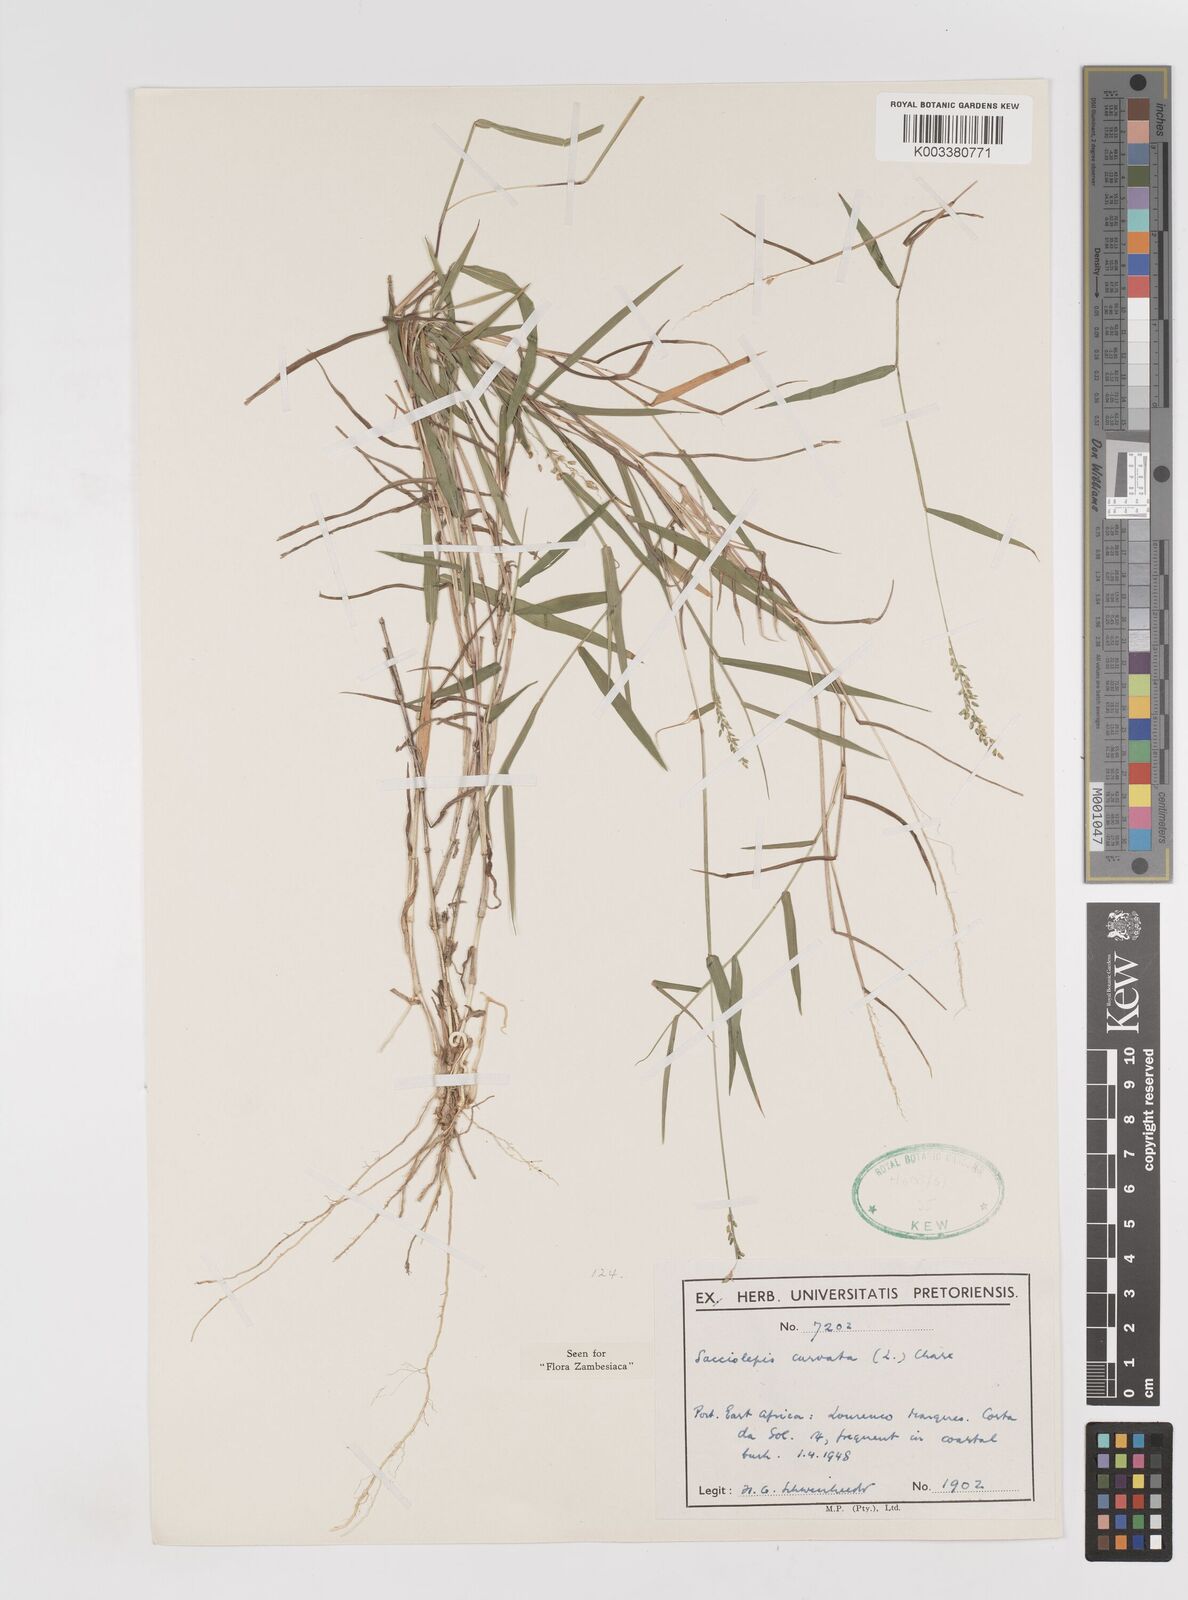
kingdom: Plantae
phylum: Tracheophyta
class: Liliopsida
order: Poales
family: Poaceae
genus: Sacciolepis
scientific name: Sacciolepis curvata
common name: Forest hood grass
